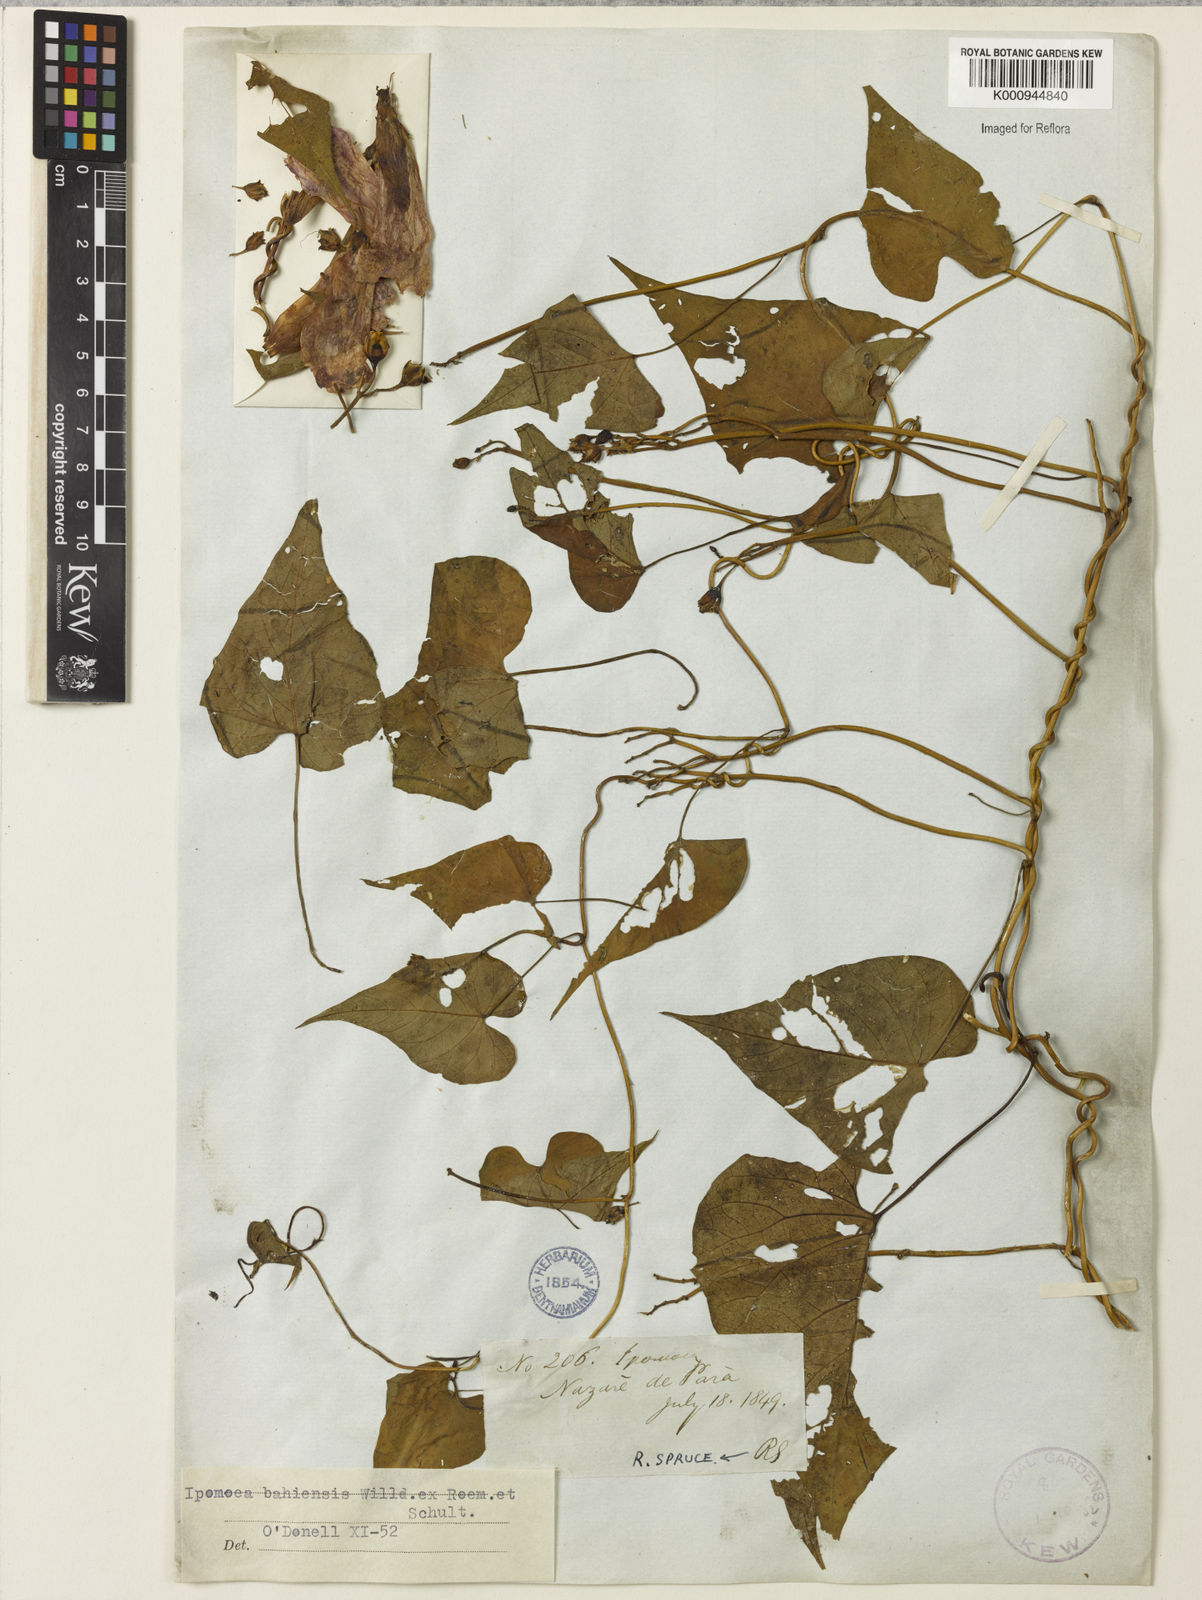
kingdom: Plantae
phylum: Tracheophyta
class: Magnoliopsida
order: Solanales
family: Convolvulaceae
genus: Ipomoea
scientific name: Ipomoea
